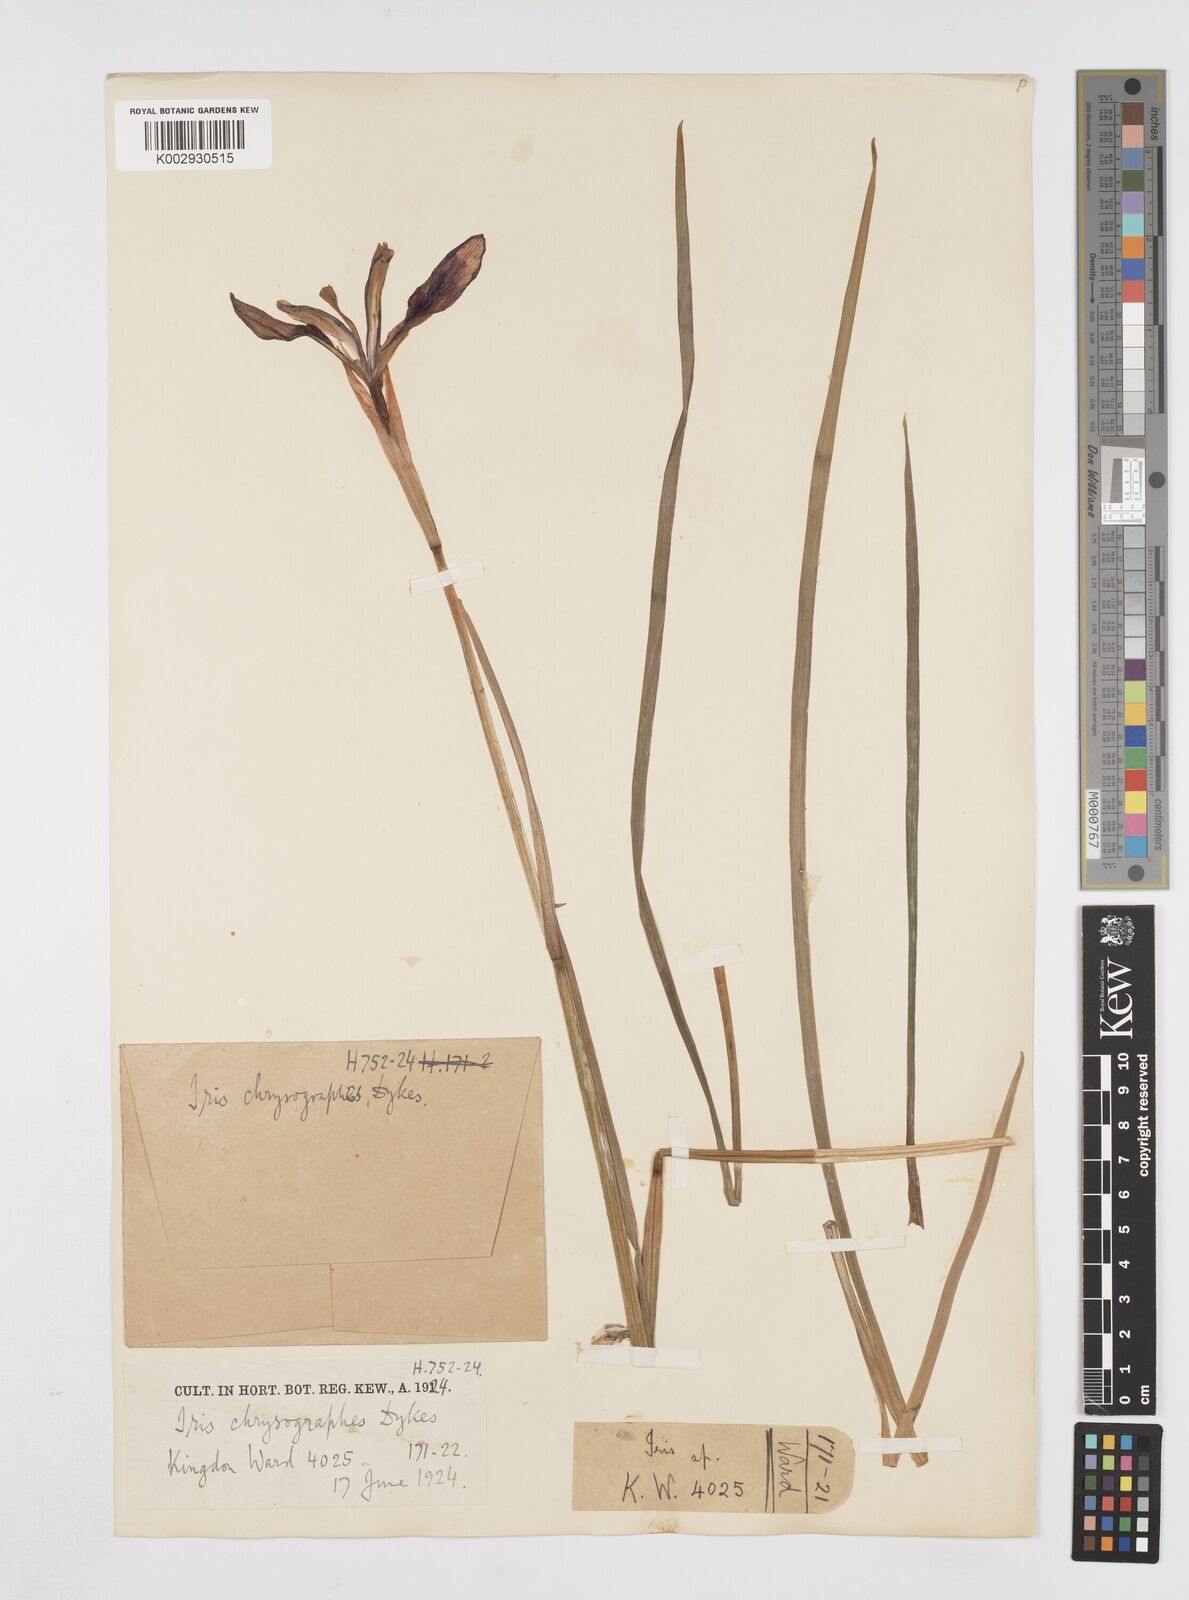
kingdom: Plantae
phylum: Tracheophyta
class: Liliopsida
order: Asparagales
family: Iridaceae
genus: Iris
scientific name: Iris chrysographes
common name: Gold-vein iris
